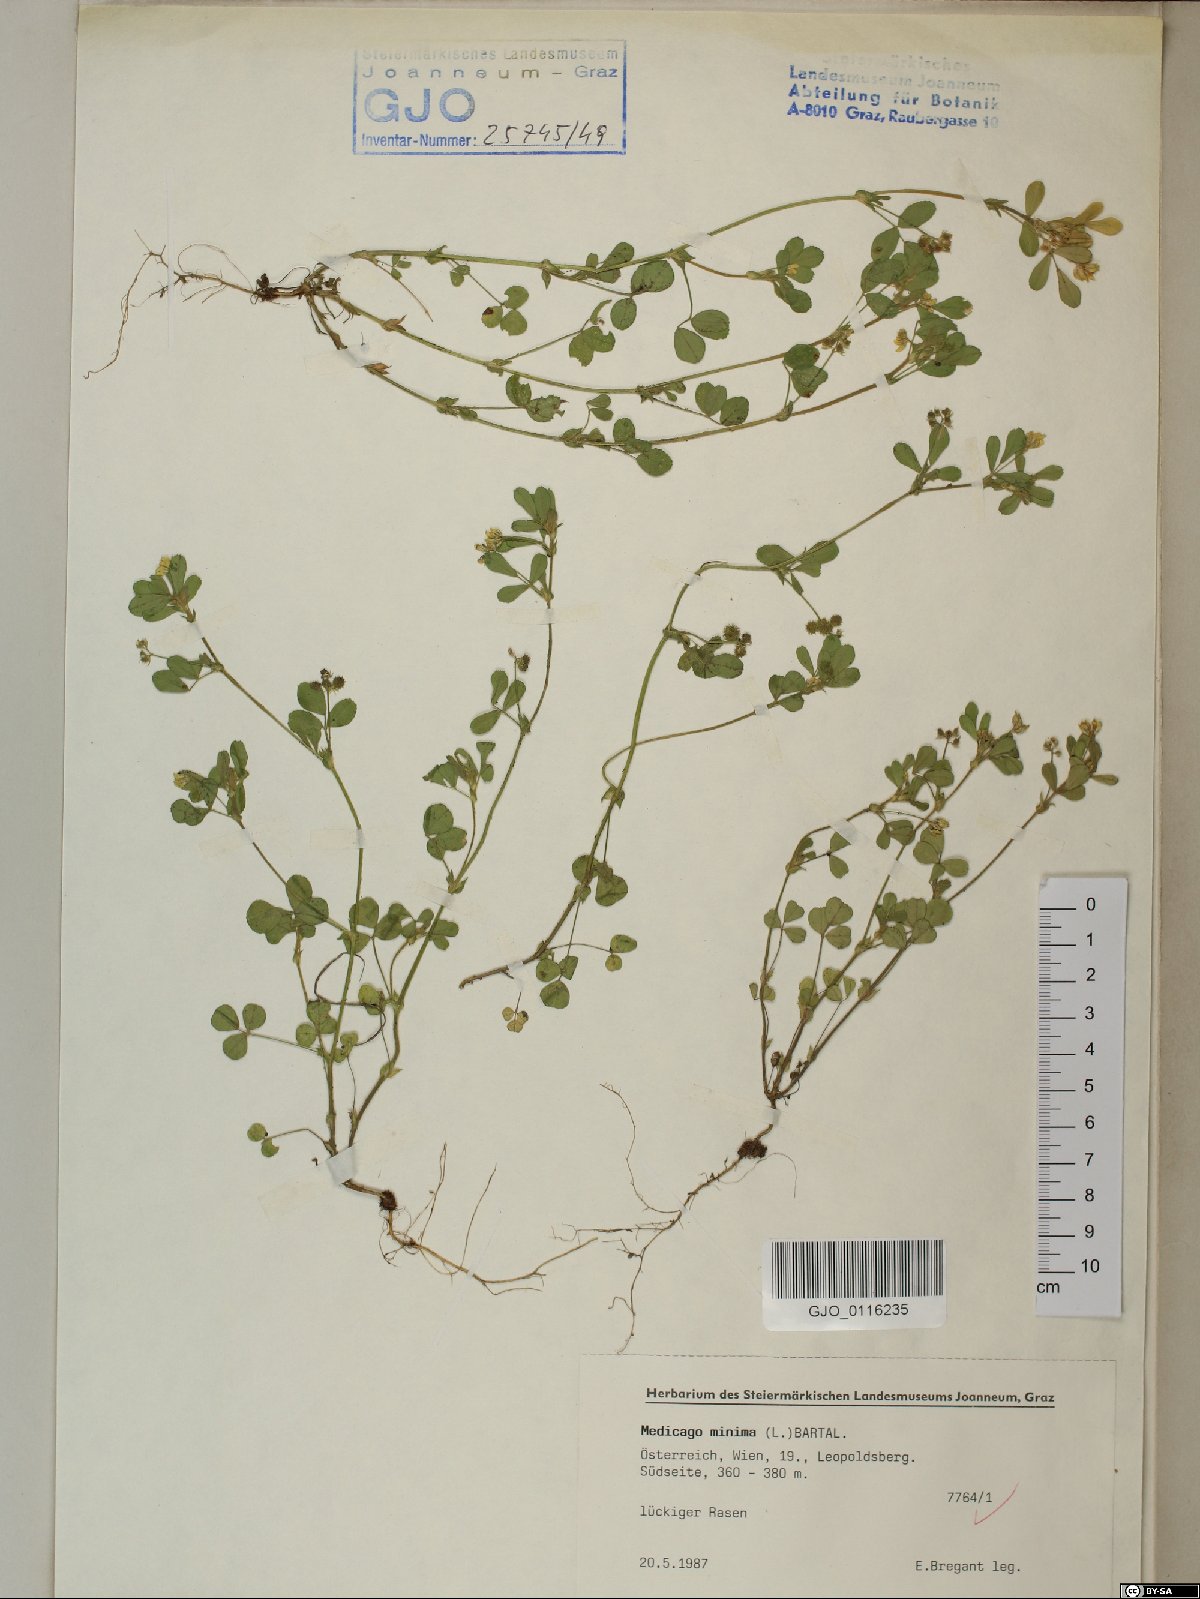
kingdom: Plantae
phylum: Tracheophyta
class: Magnoliopsida
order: Fabales
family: Fabaceae
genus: Medicago
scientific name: Medicago minima
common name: Little bur-clover
